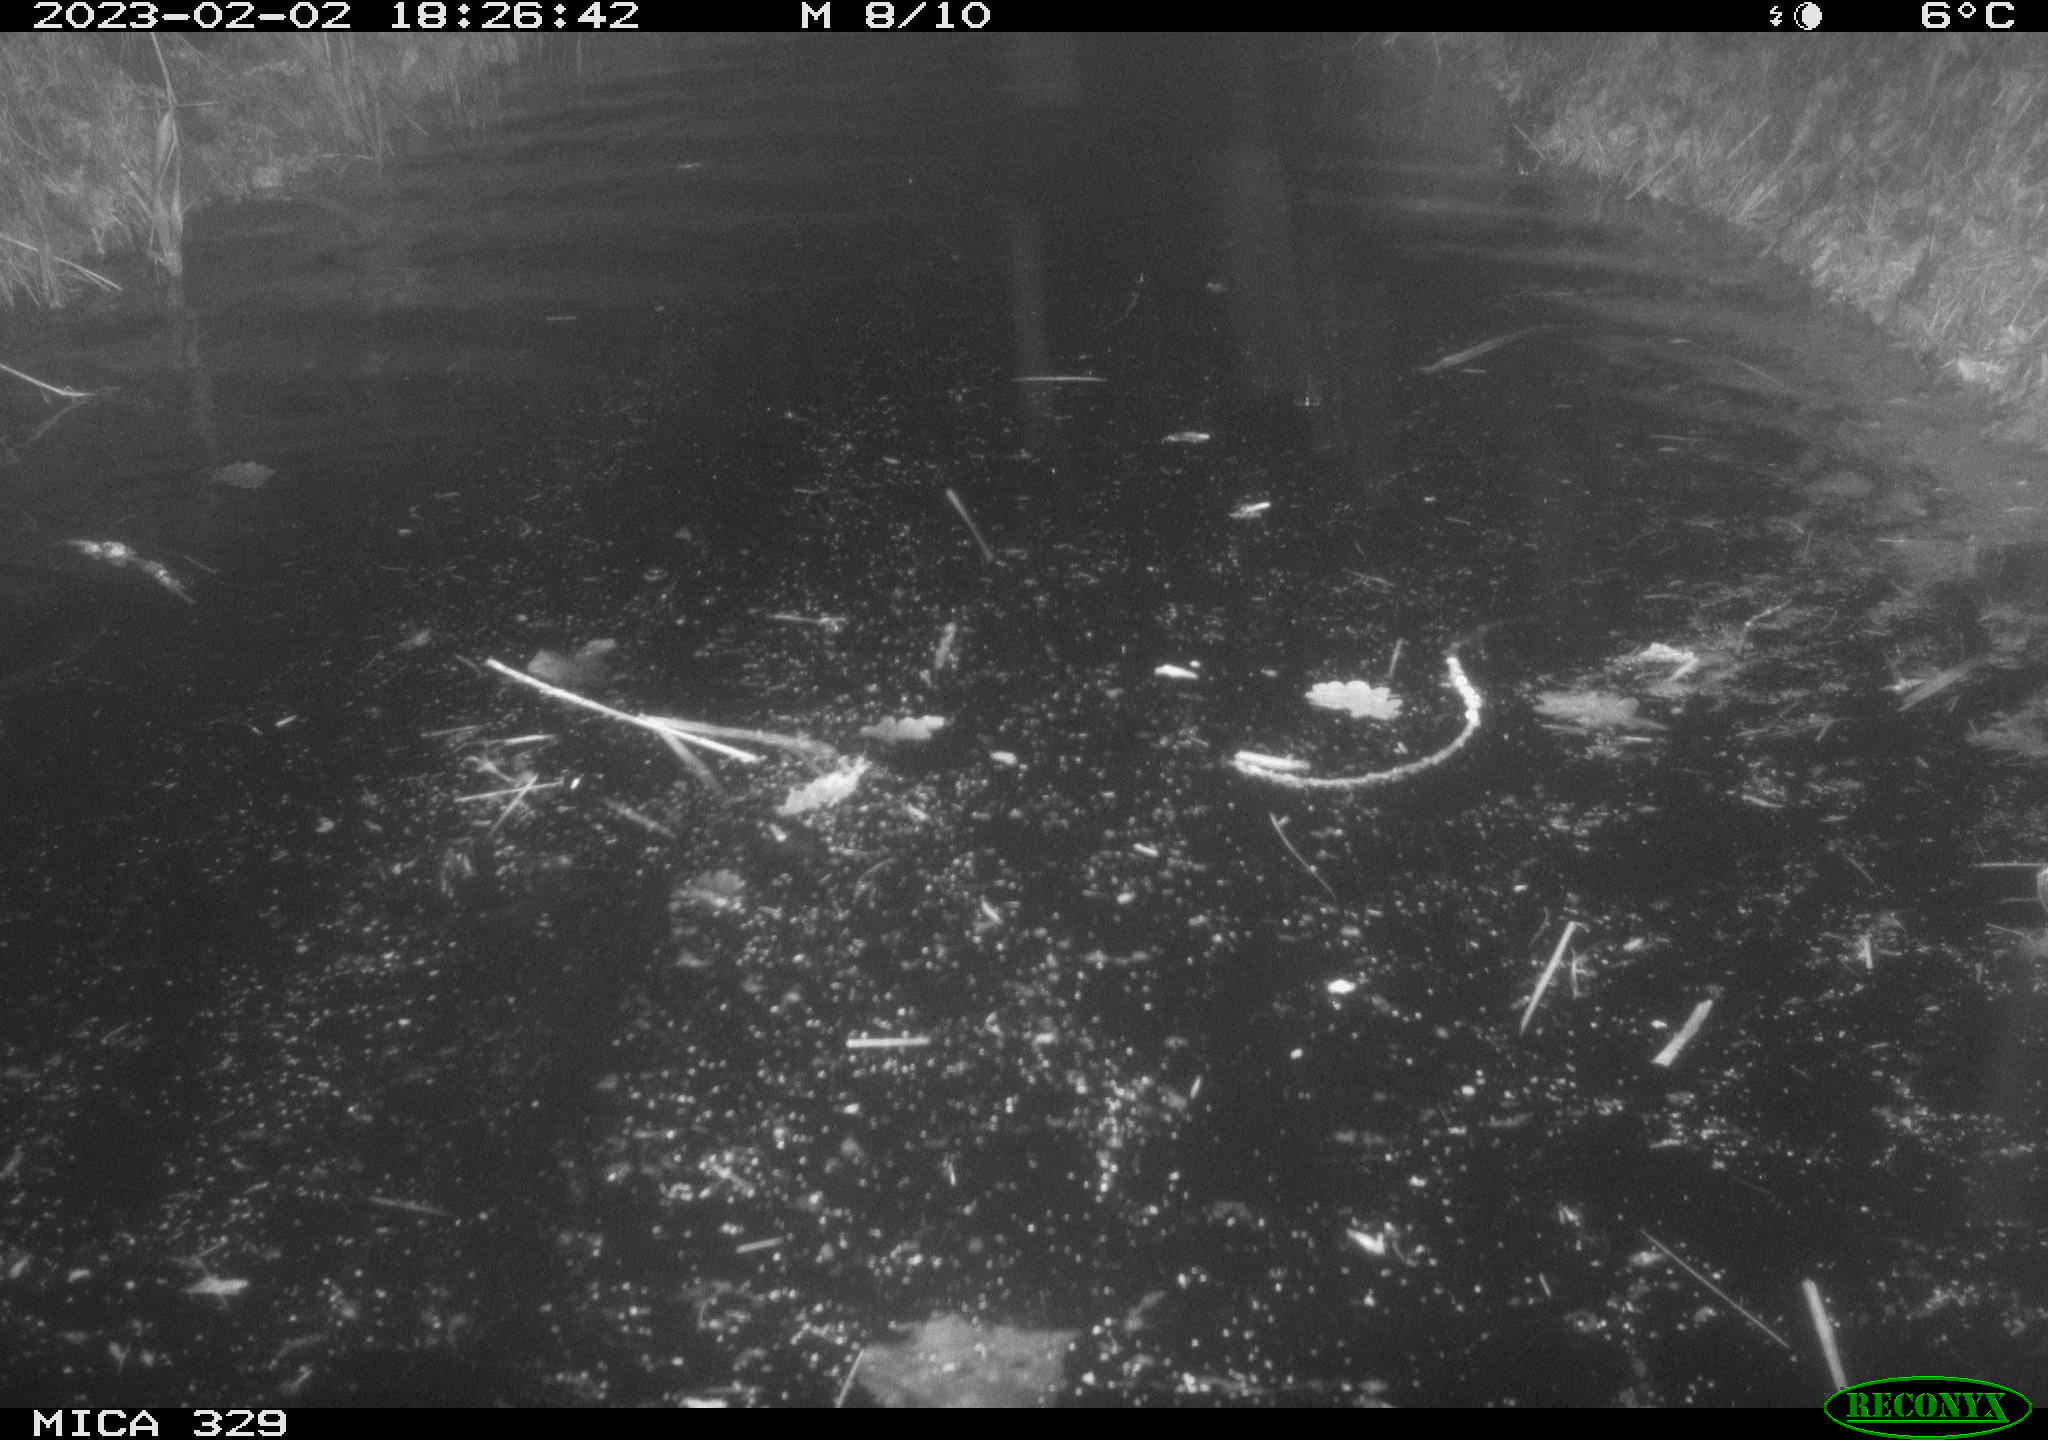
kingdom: Animalia
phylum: Chordata
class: Mammalia
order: Rodentia
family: Cricetidae
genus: Ondatra
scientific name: Ondatra zibethicus
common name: Muskrat
